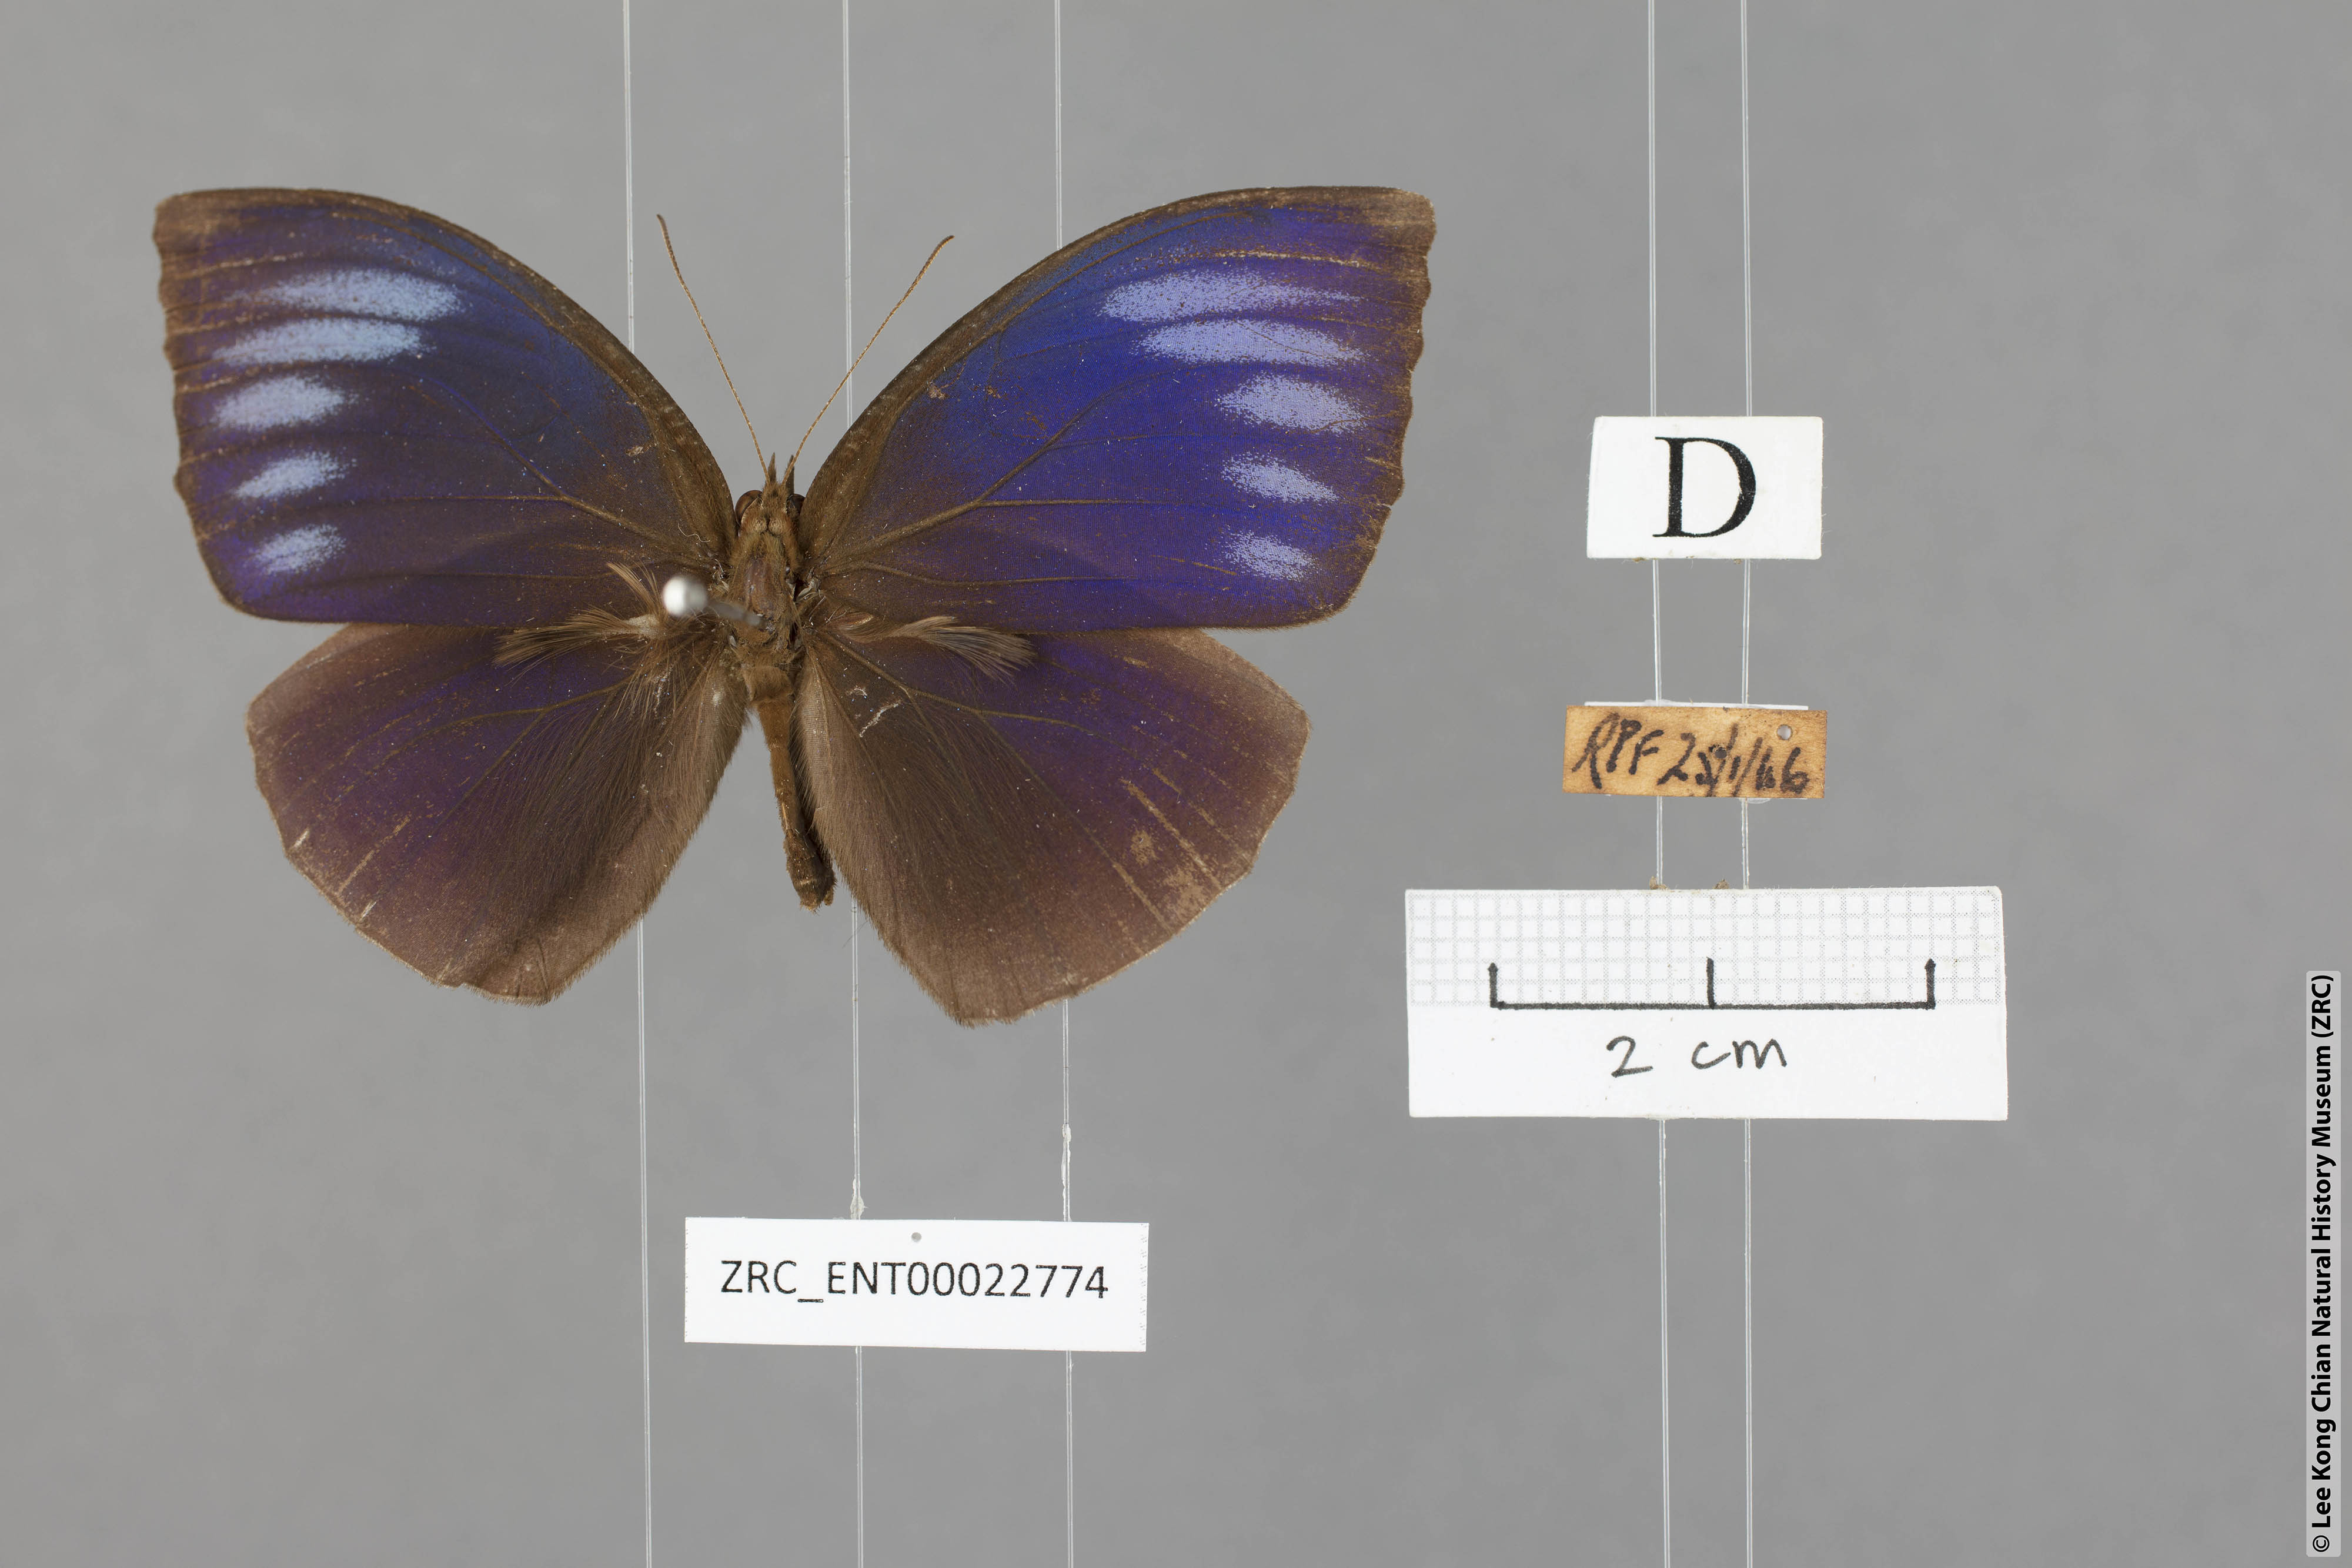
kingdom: Animalia
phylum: Arthropoda
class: Insecta
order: Lepidoptera
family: Nymphalidae
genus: Elymnias
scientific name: Elymnias penanga
